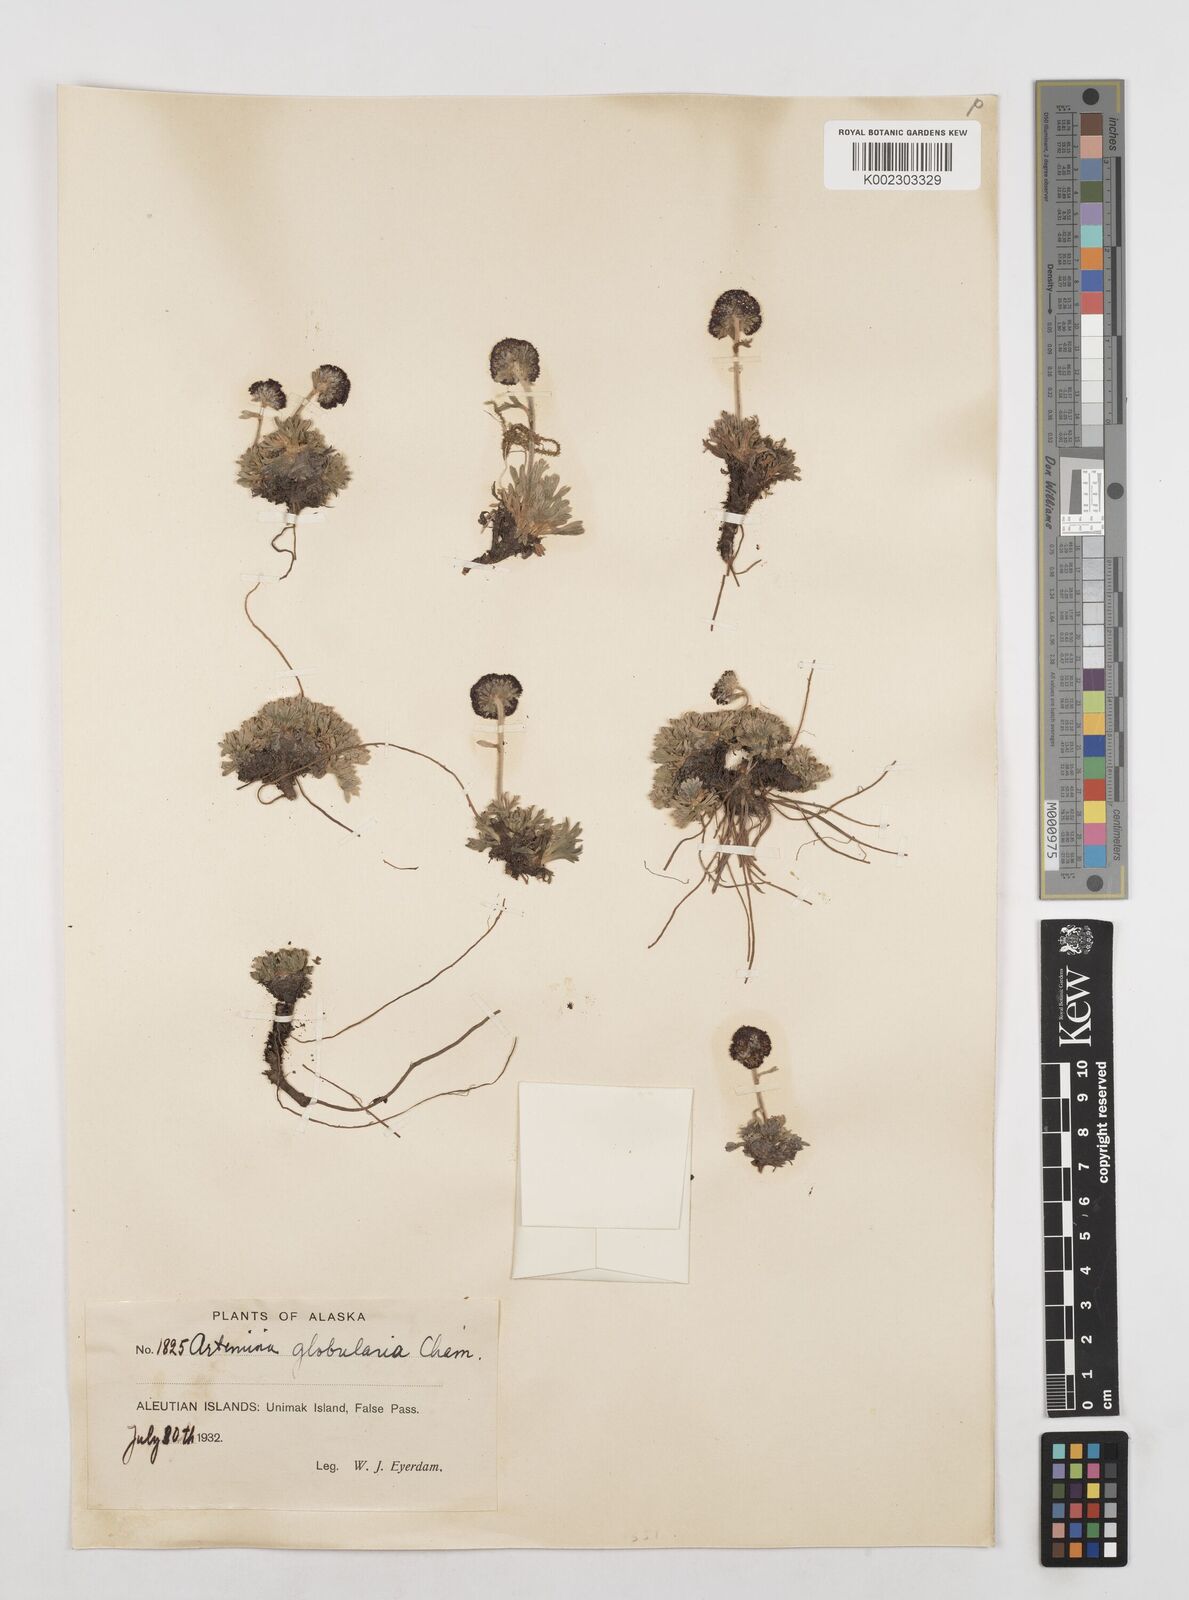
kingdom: Plantae
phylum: Tracheophyta
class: Magnoliopsida
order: Asterales
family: Asteraceae
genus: Artemisia
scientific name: Artemisia globularia
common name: Purple wormwood
